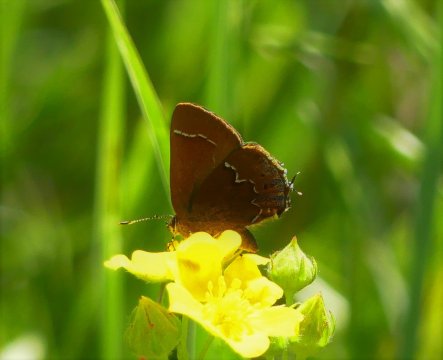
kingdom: Animalia
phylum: Arthropoda
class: Insecta
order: Lepidoptera
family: Lycaenidae
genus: Mitoura
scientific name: Mitoura spinetorum
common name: Thicket Hairstreak
